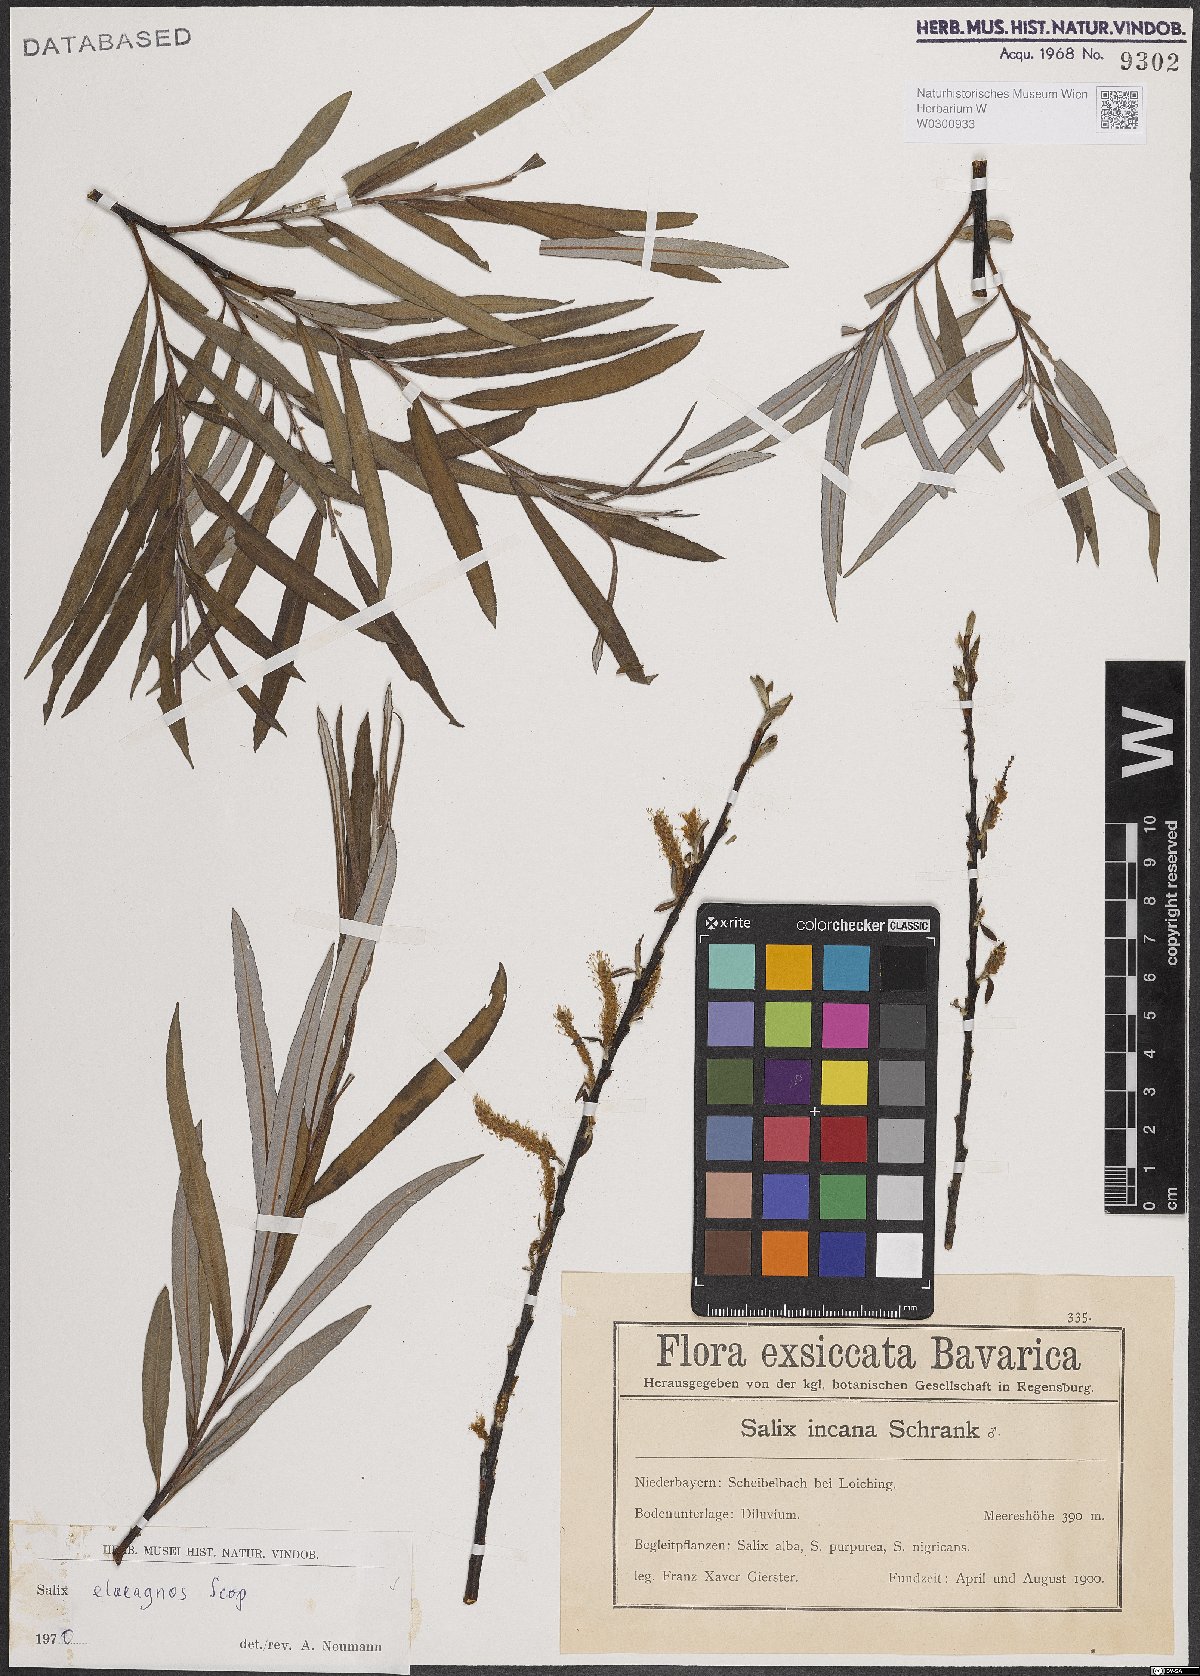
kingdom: Plantae
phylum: Tracheophyta
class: Magnoliopsida
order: Malpighiales
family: Salicaceae
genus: Salix
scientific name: Salix eleagnos
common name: Elaeagnus willow
